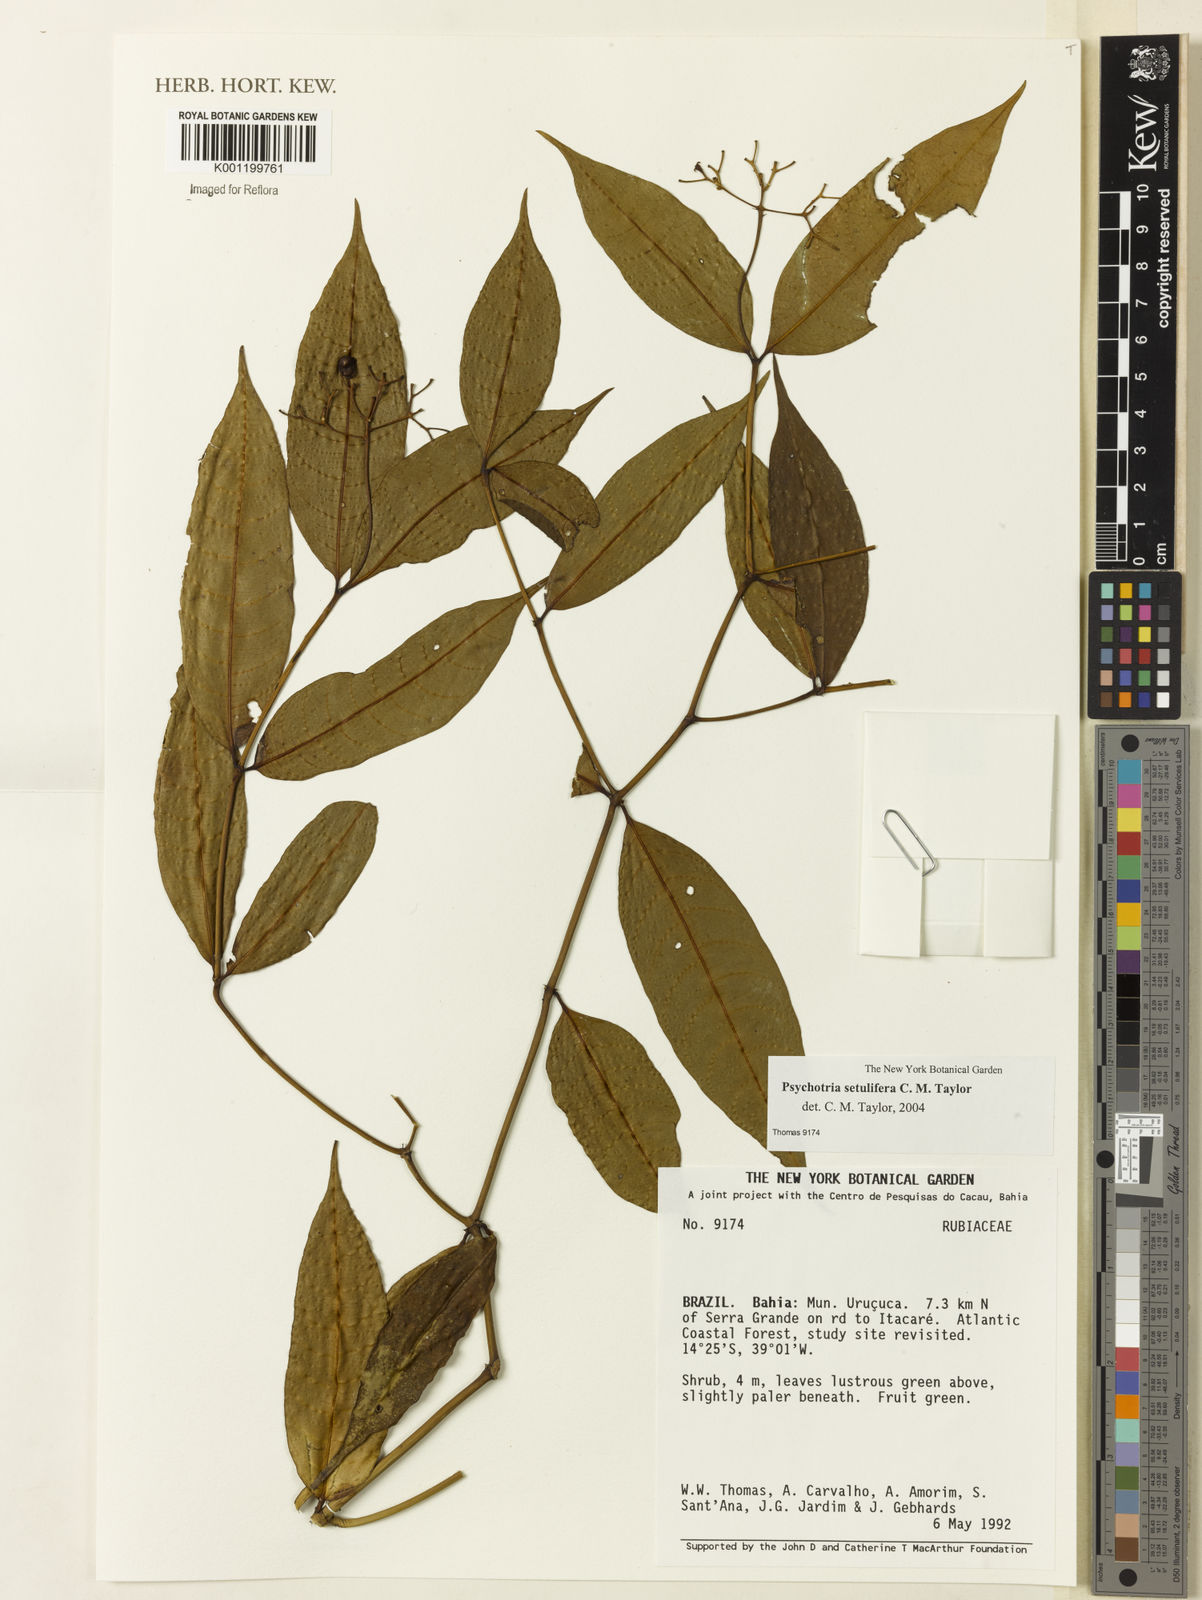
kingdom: Plantae
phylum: Tracheophyta
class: Magnoliopsida
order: Gentianales
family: Rubiaceae
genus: Psychotria
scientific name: Psychotria setulifera
